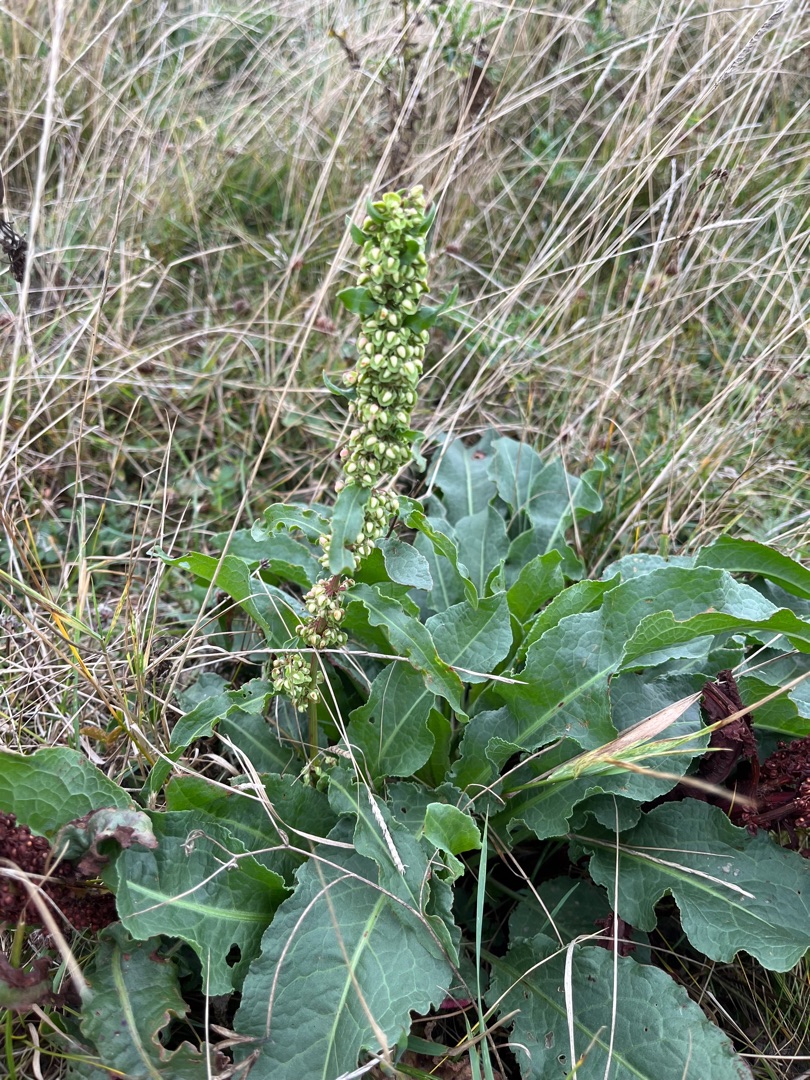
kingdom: Plantae
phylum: Tracheophyta
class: Magnoliopsida
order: Caryophyllales
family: Polygonaceae
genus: Rumex
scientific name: Rumex hydrolapathum
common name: Vand-skræppe
